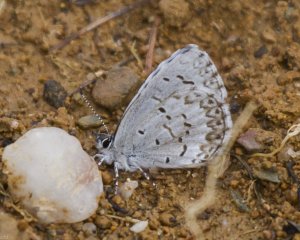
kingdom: Animalia
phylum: Arthropoda
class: Insecta
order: Lepidoptera
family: Lycaenidae
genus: Celastrina
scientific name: Celastrina lucia
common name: Northern Spring Azure
